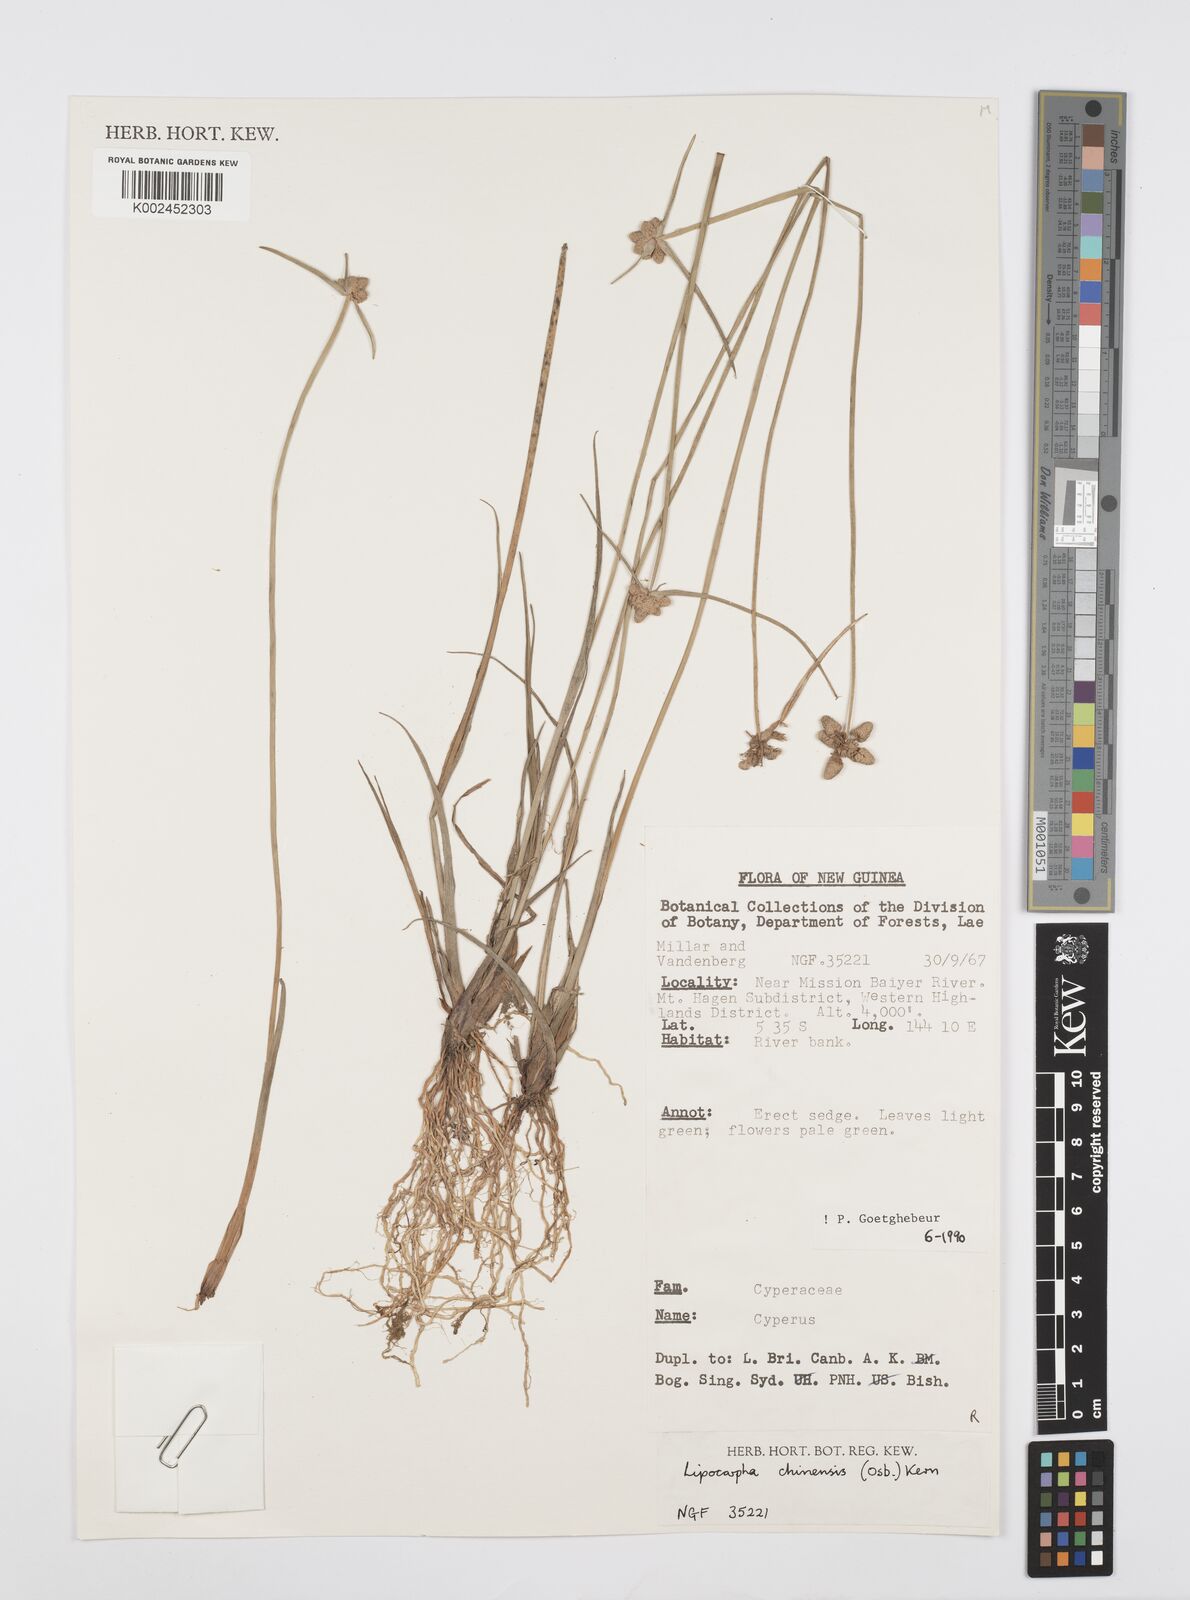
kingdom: Plantae
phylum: Tracheophyta
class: Liliopsida
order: Poales
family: Cyperaceae
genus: Cyperus
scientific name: Cyperus albescens
